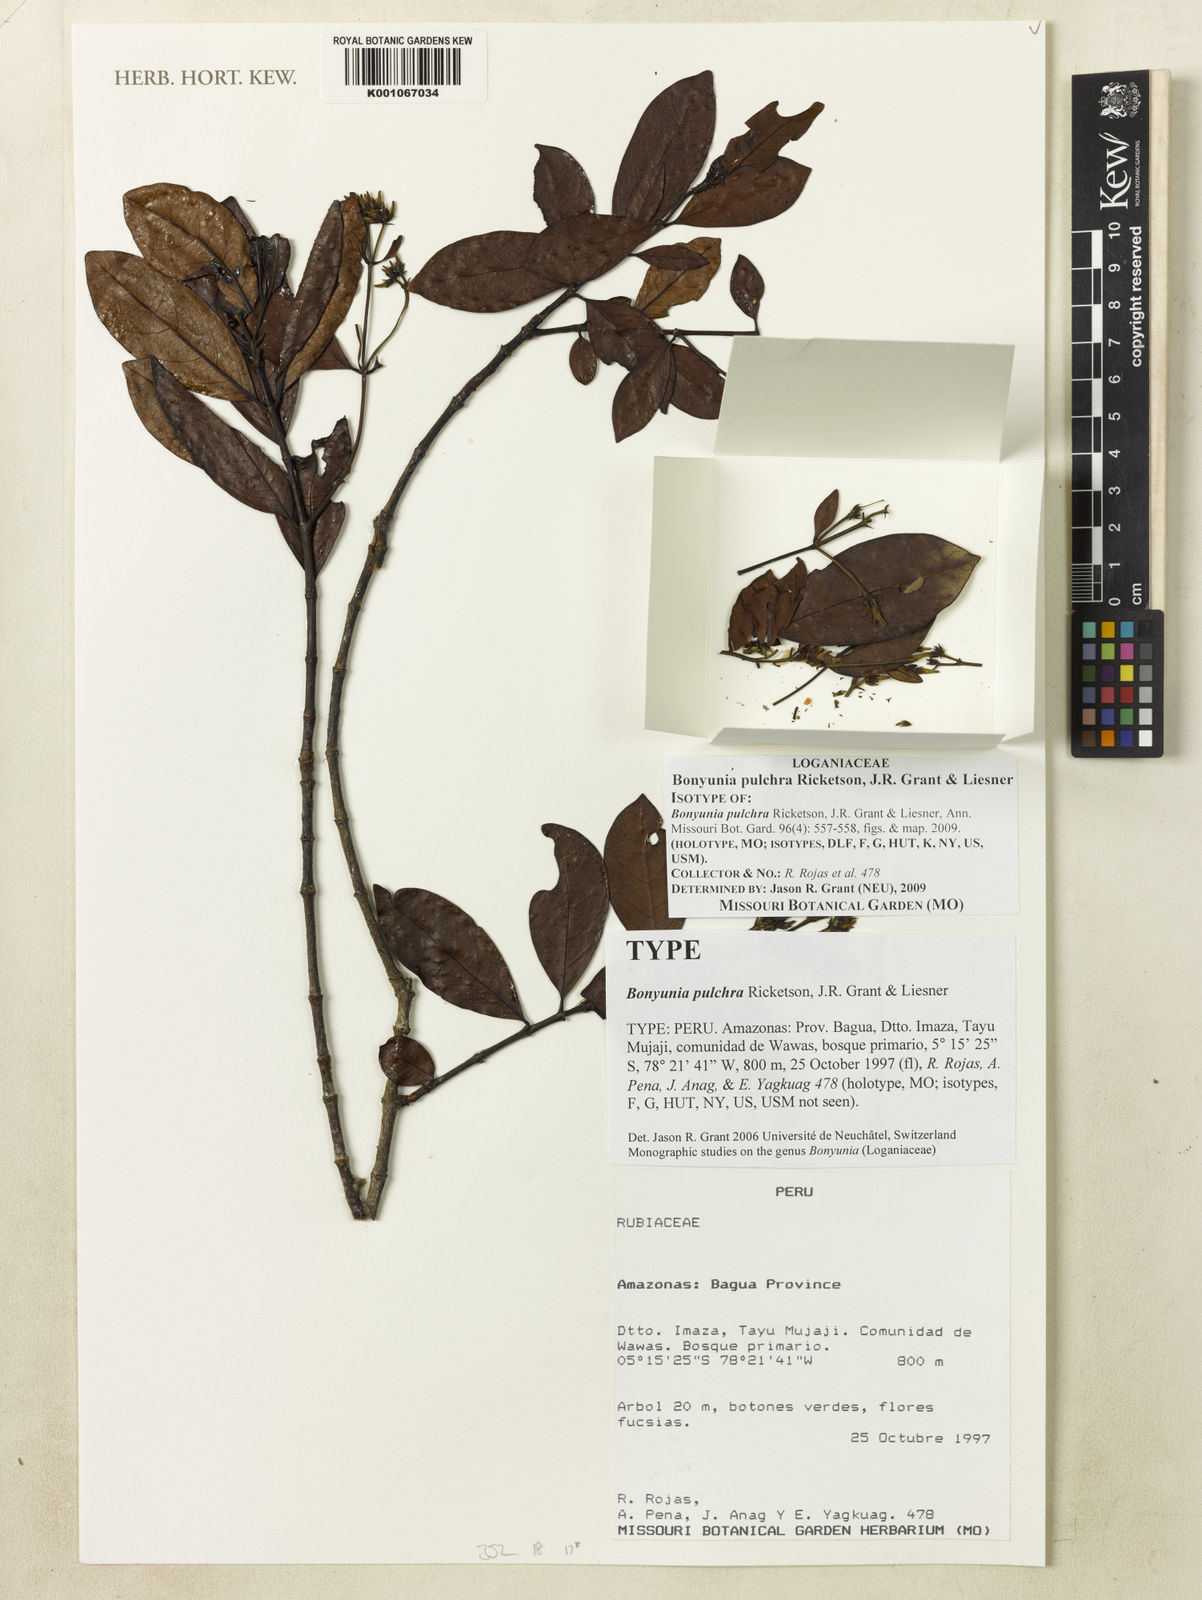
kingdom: Plantae
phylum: Tracheophyta
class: Magnoliopsida
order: Gentianales
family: Loganiaceae
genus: Bonyunia
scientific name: Bonyunia pulchra
